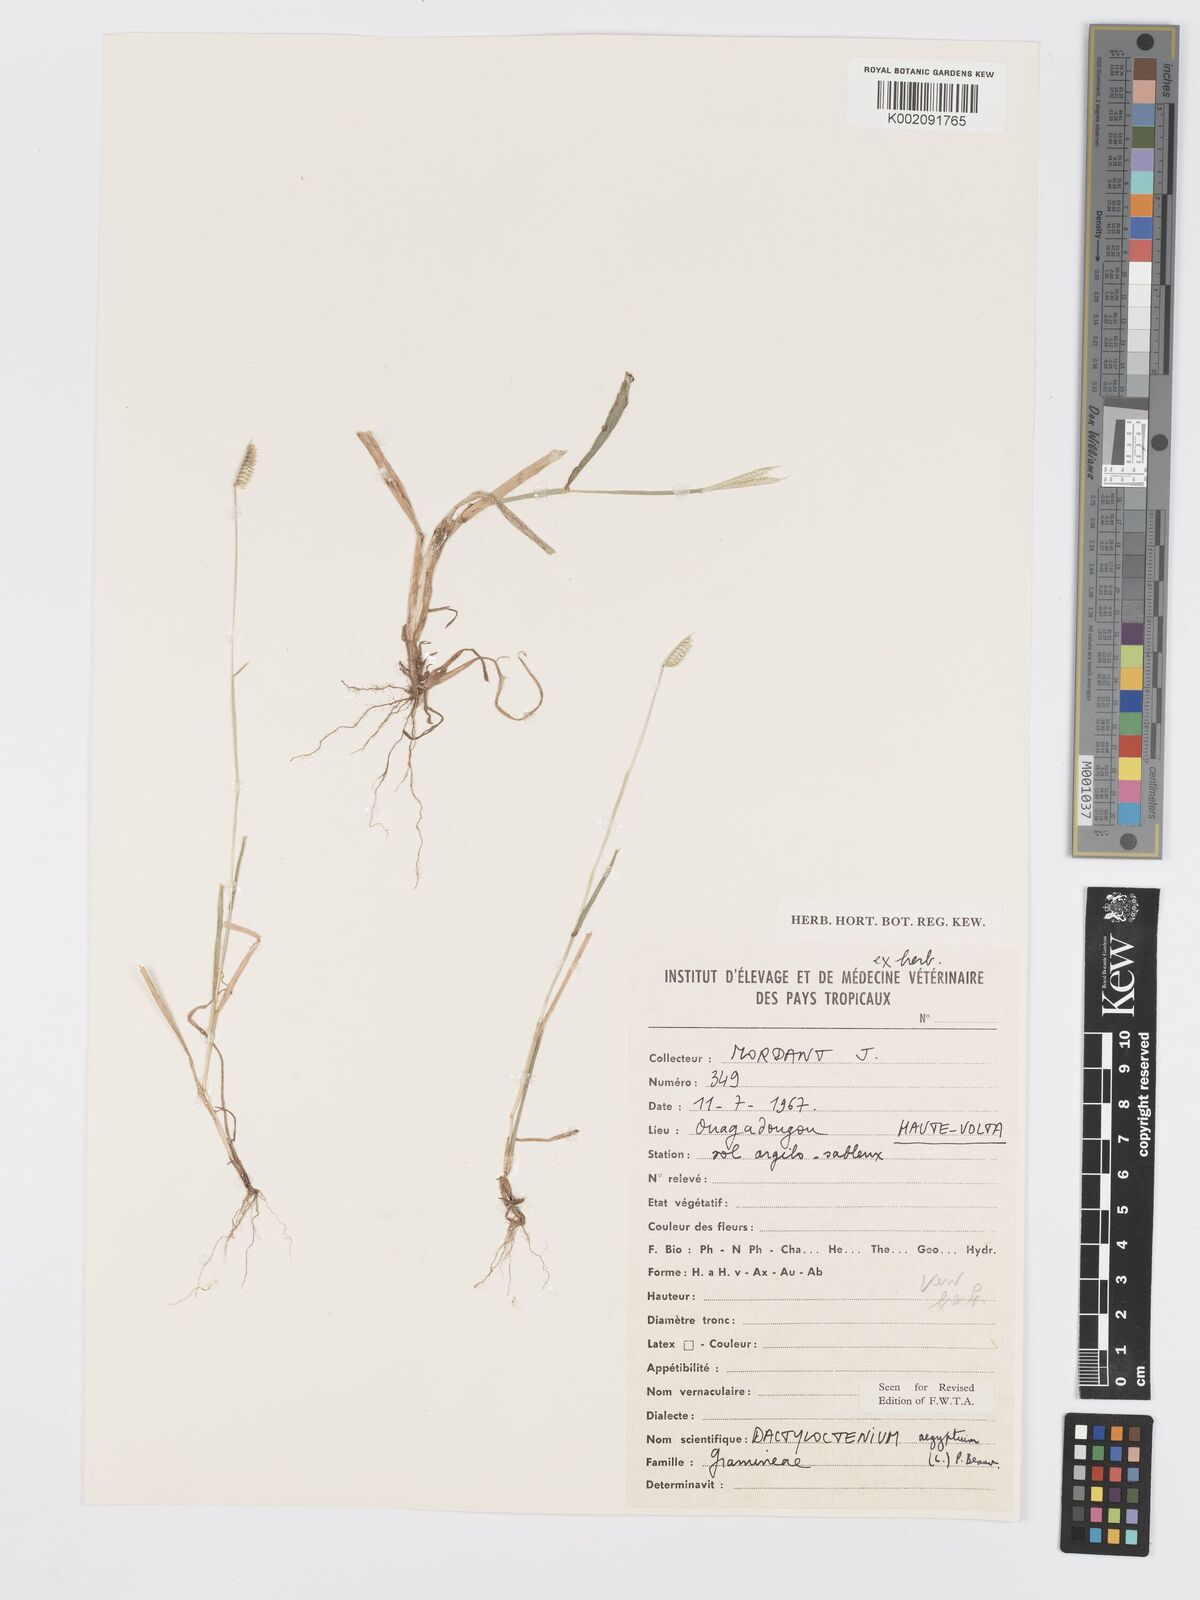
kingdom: Plantae
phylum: Tracheophyta
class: Liliopsida
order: Poales
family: Poaceae
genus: Dactyloctenium
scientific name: Dactyloctenium aegyptium
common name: Egyptian grass
